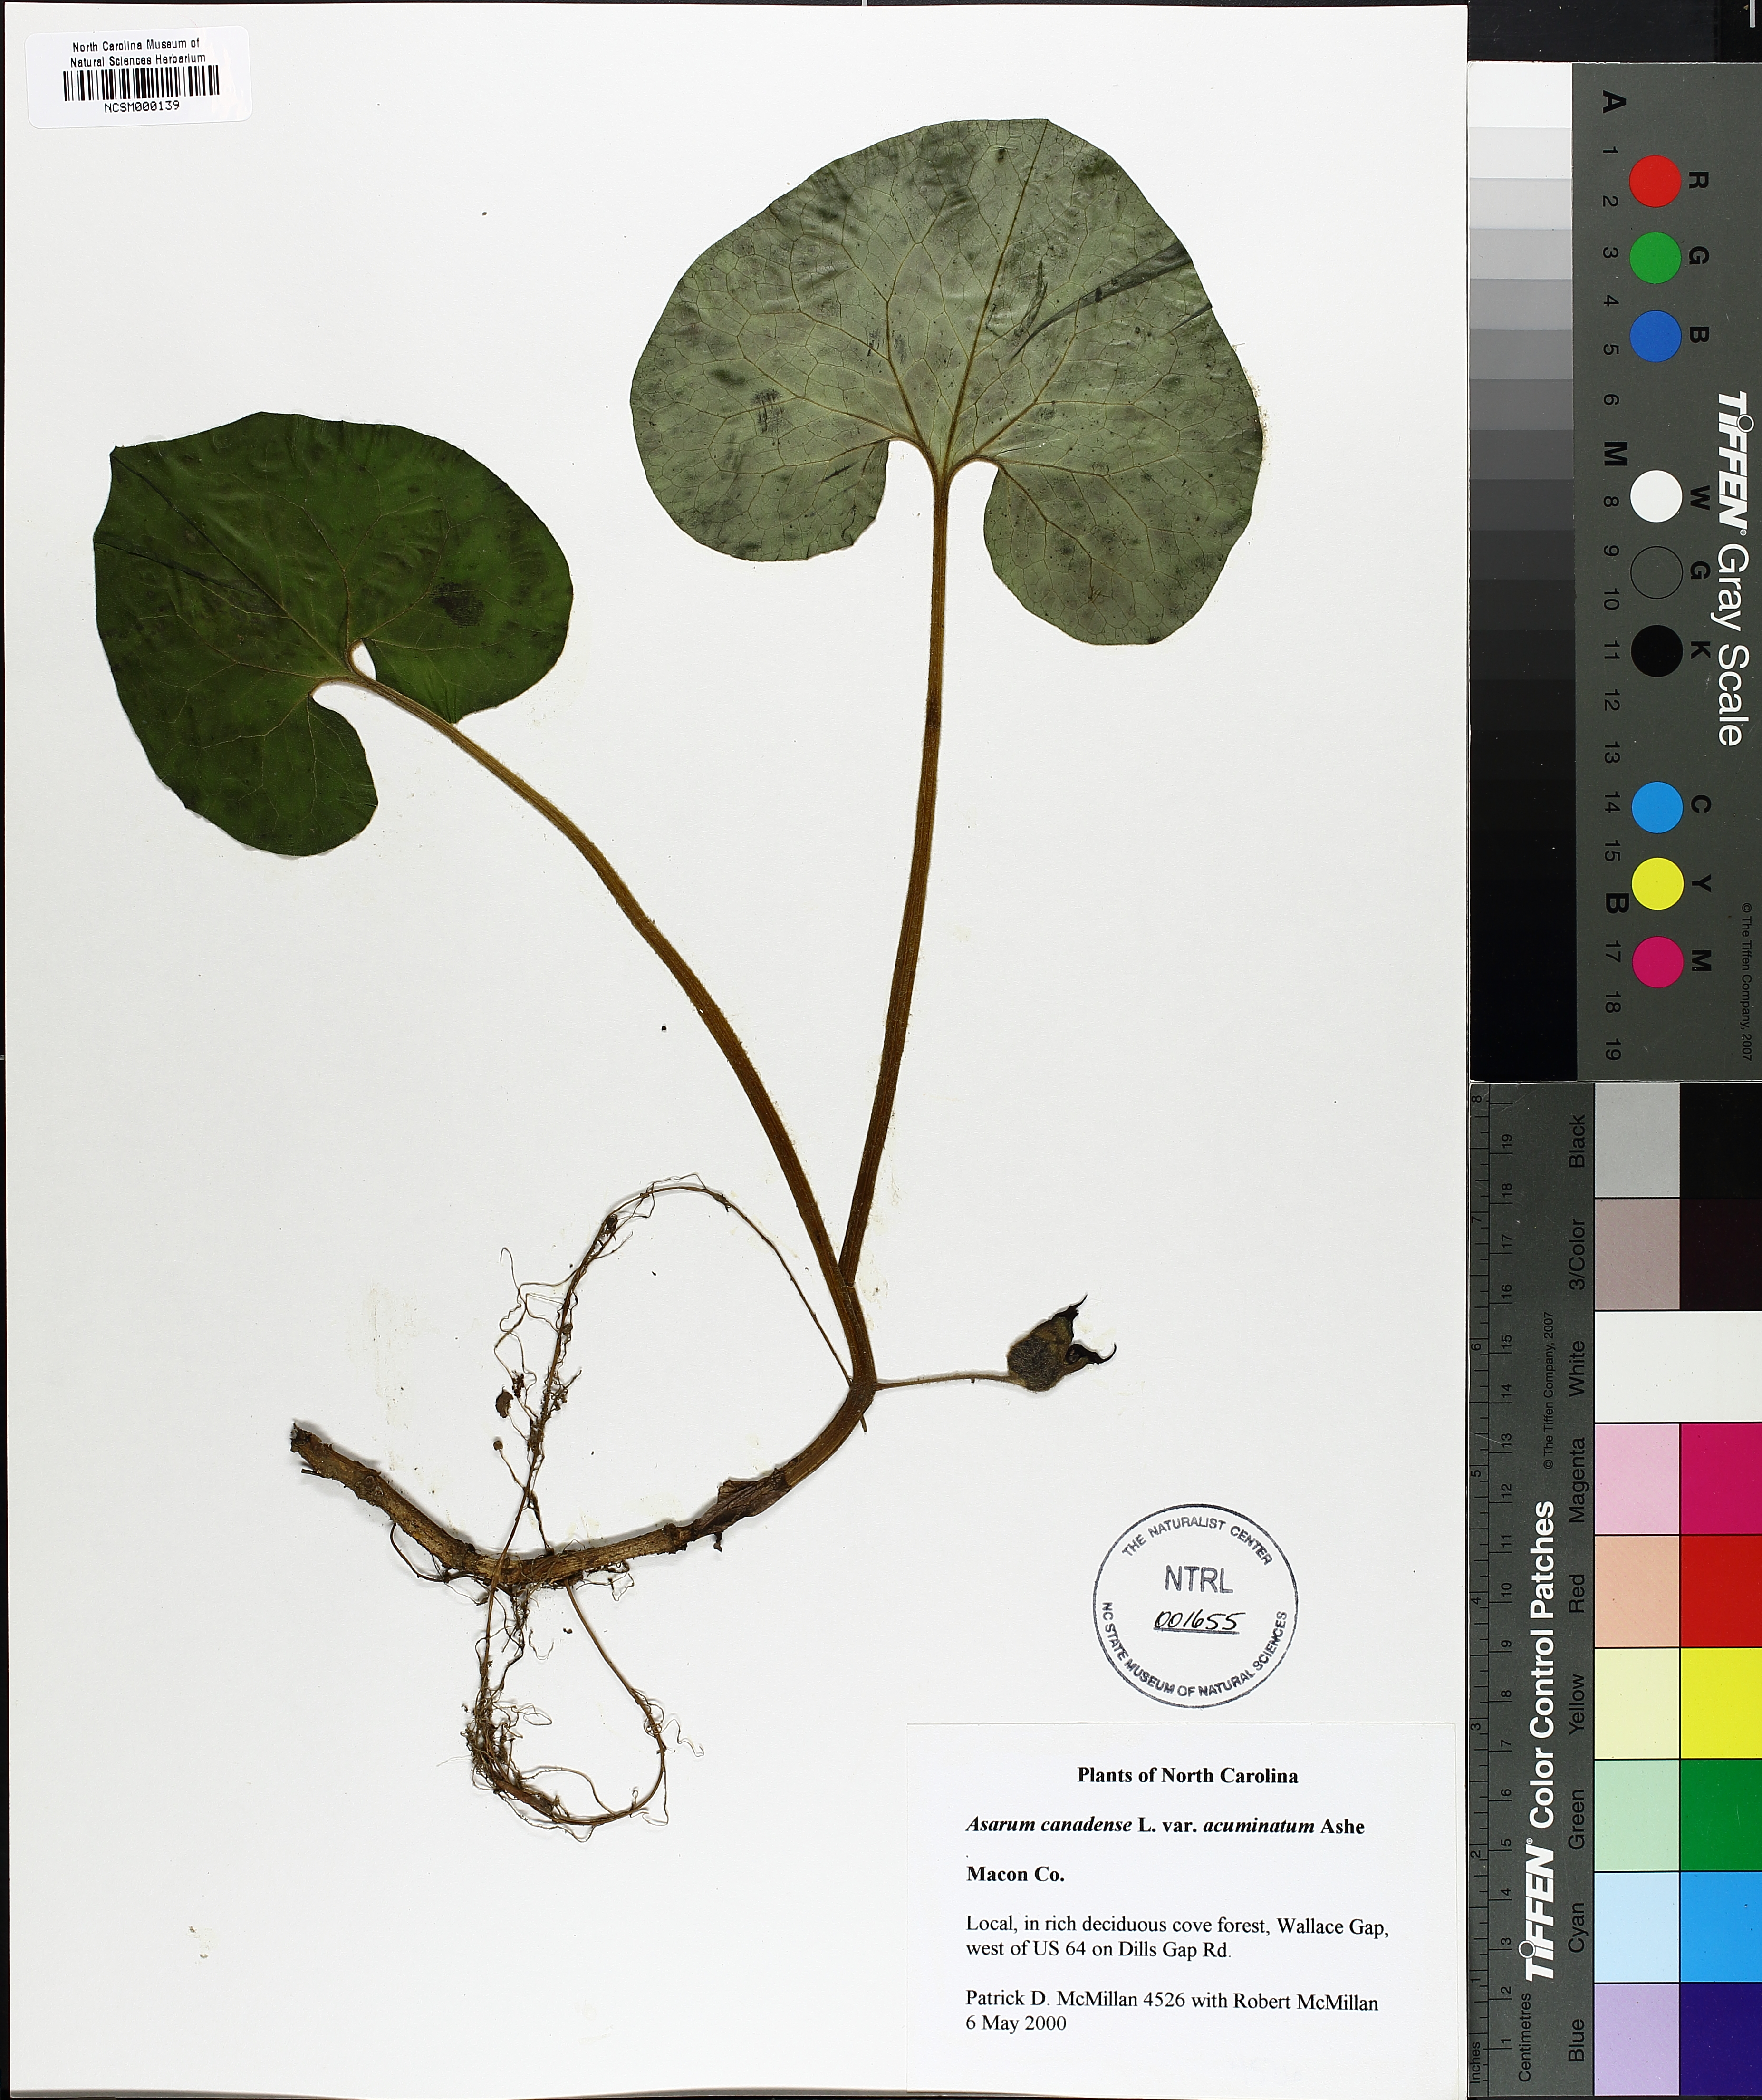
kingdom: Plantae
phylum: Tracheophyta
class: Magnoliopsida
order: Piperales
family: Aristolochiaceae
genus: Asarum
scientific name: Asarum canadense
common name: Wild ginger
